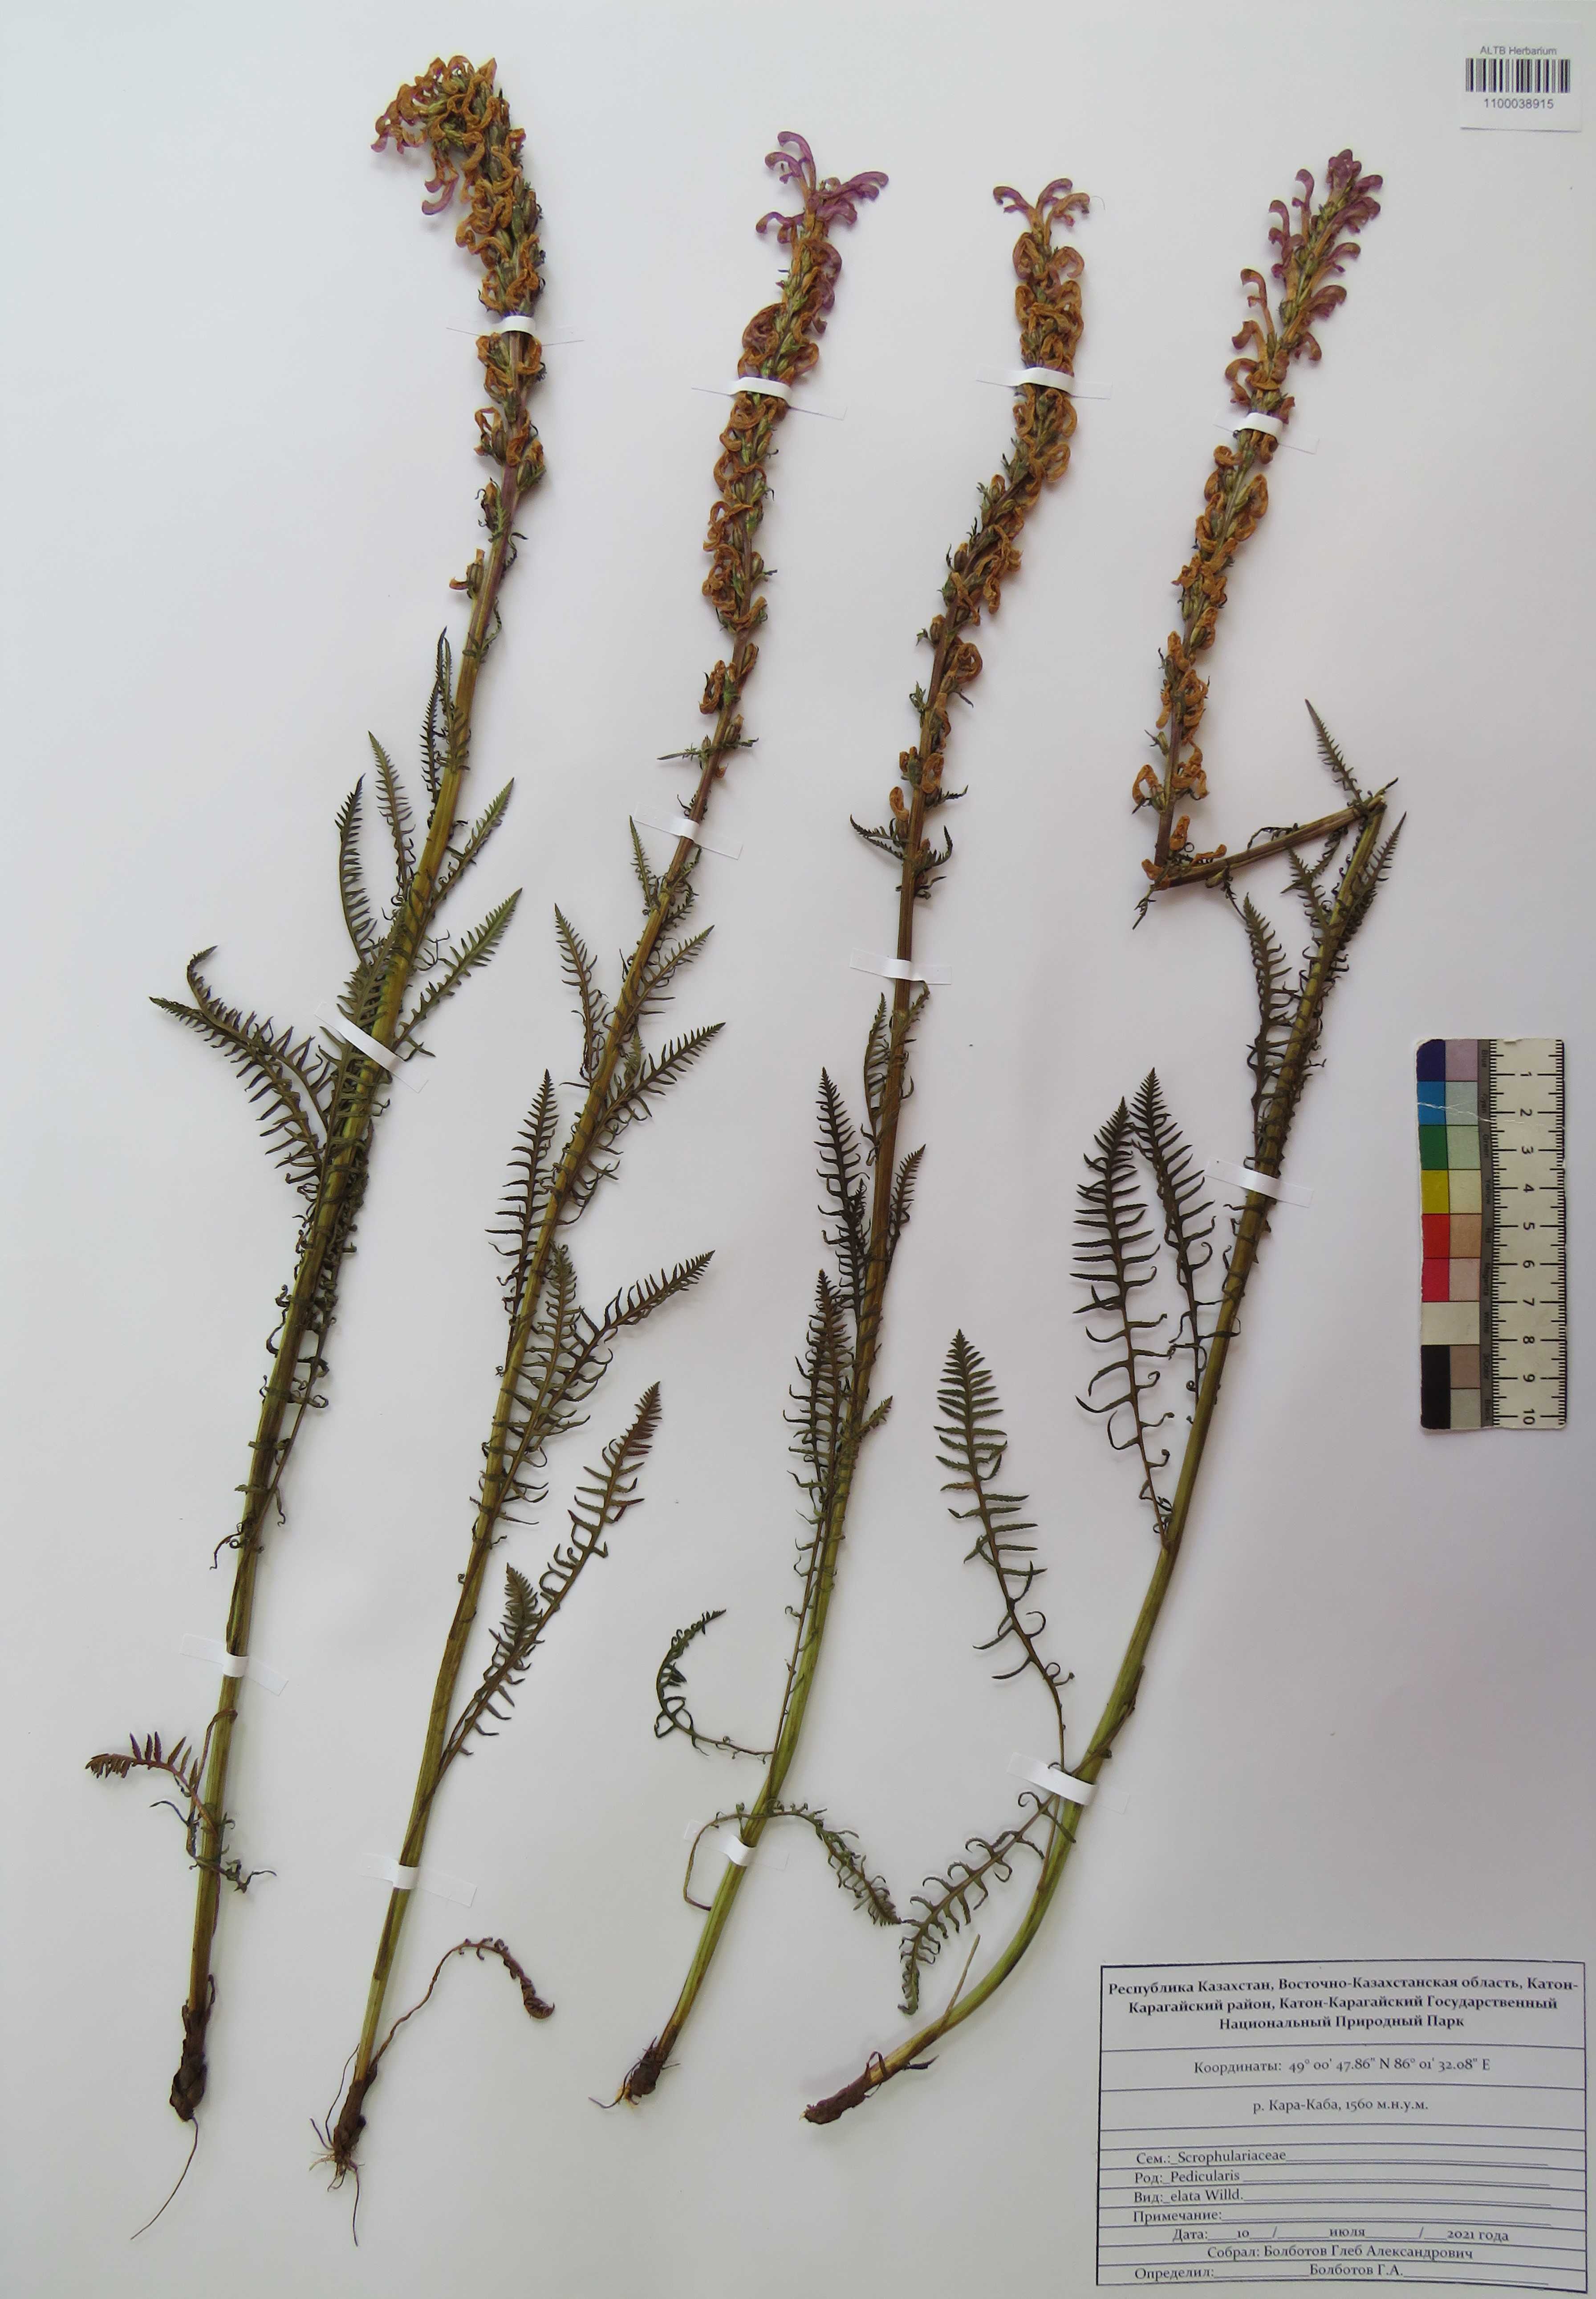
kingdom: Plantae
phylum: Tracheophyta
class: Magnoliopsida
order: Lamiales
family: Orobanchaceae
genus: Pedicularis
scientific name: Pedicularis elata
